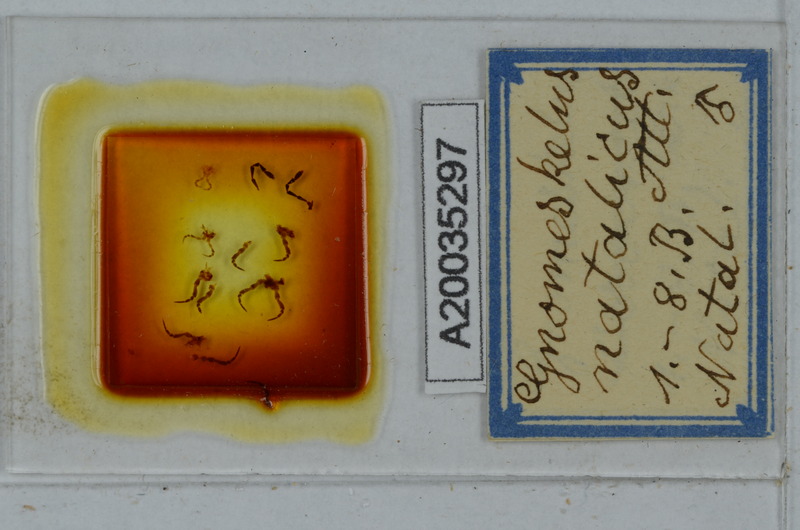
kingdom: Animalia
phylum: Arthropoda
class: Diplopoda
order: Polydesmida
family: Dalodesmidae
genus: Gnomeskelus
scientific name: Gnomeskelus natalicus
